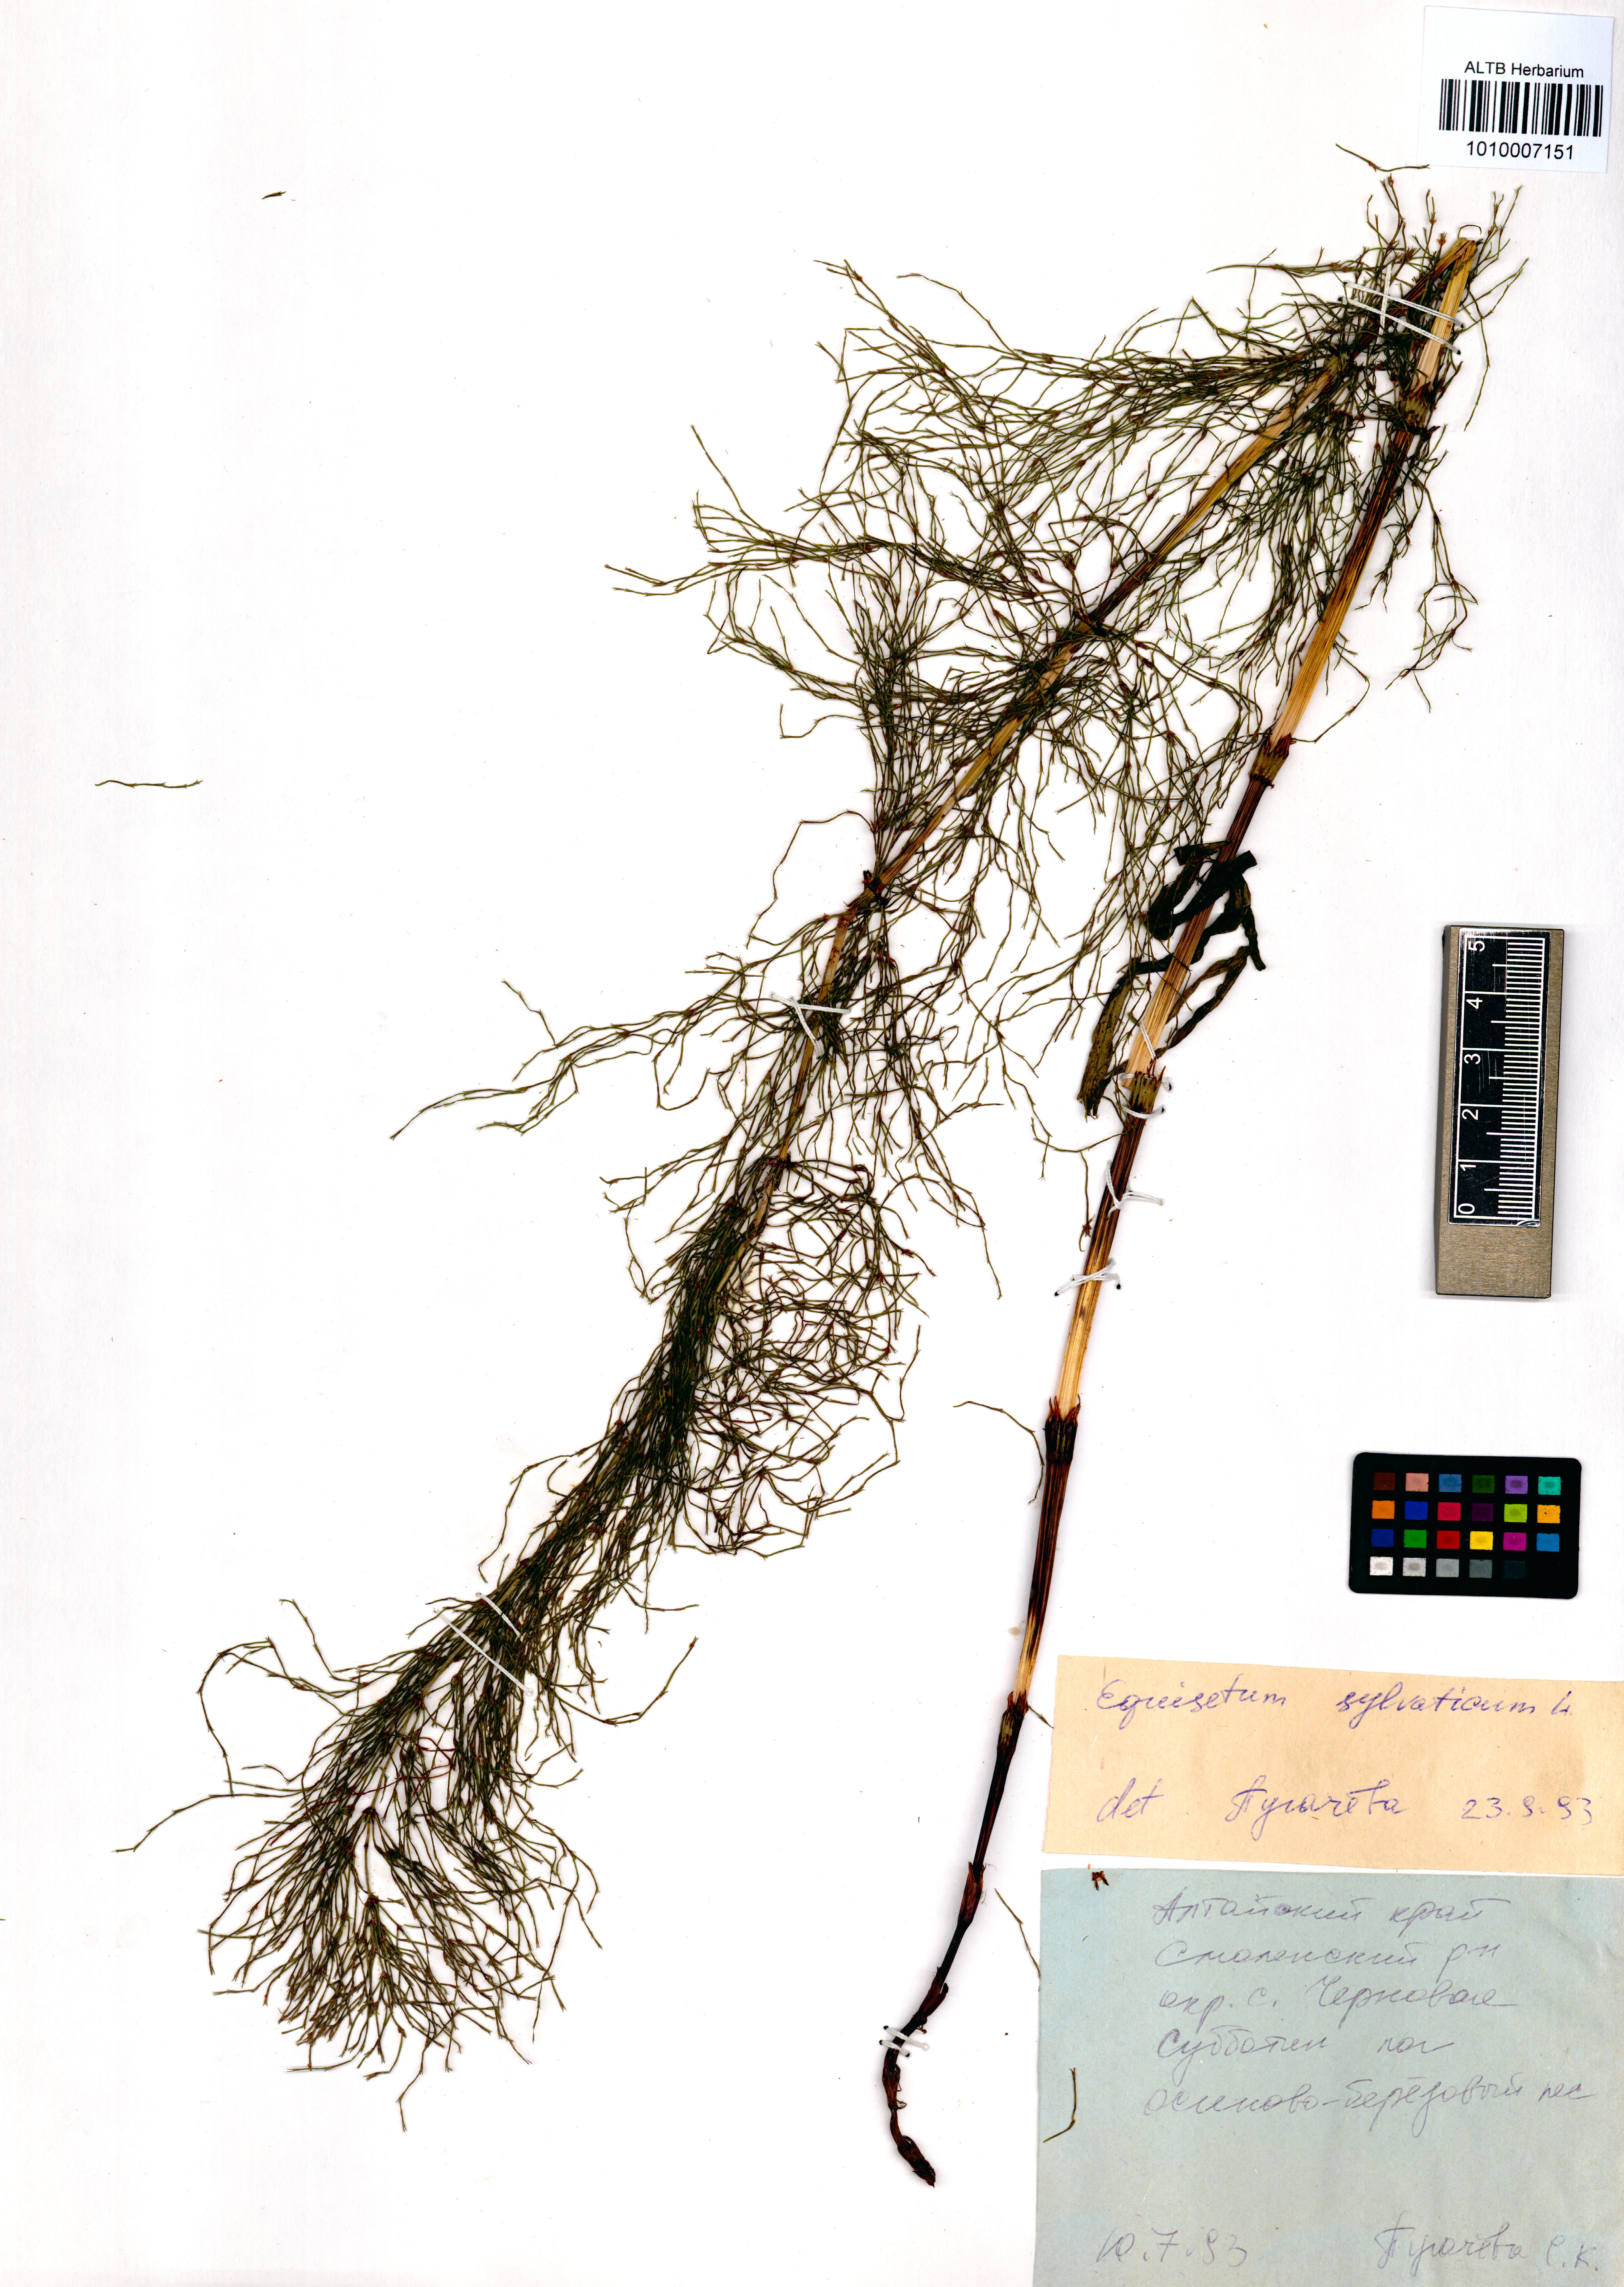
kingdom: Plantae
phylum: Tracheophyta
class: Polypodiopsida
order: Equisetales
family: Equisetaceae
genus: Equisetum
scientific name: Equisetum sylvaticum
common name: Wood horsetail
